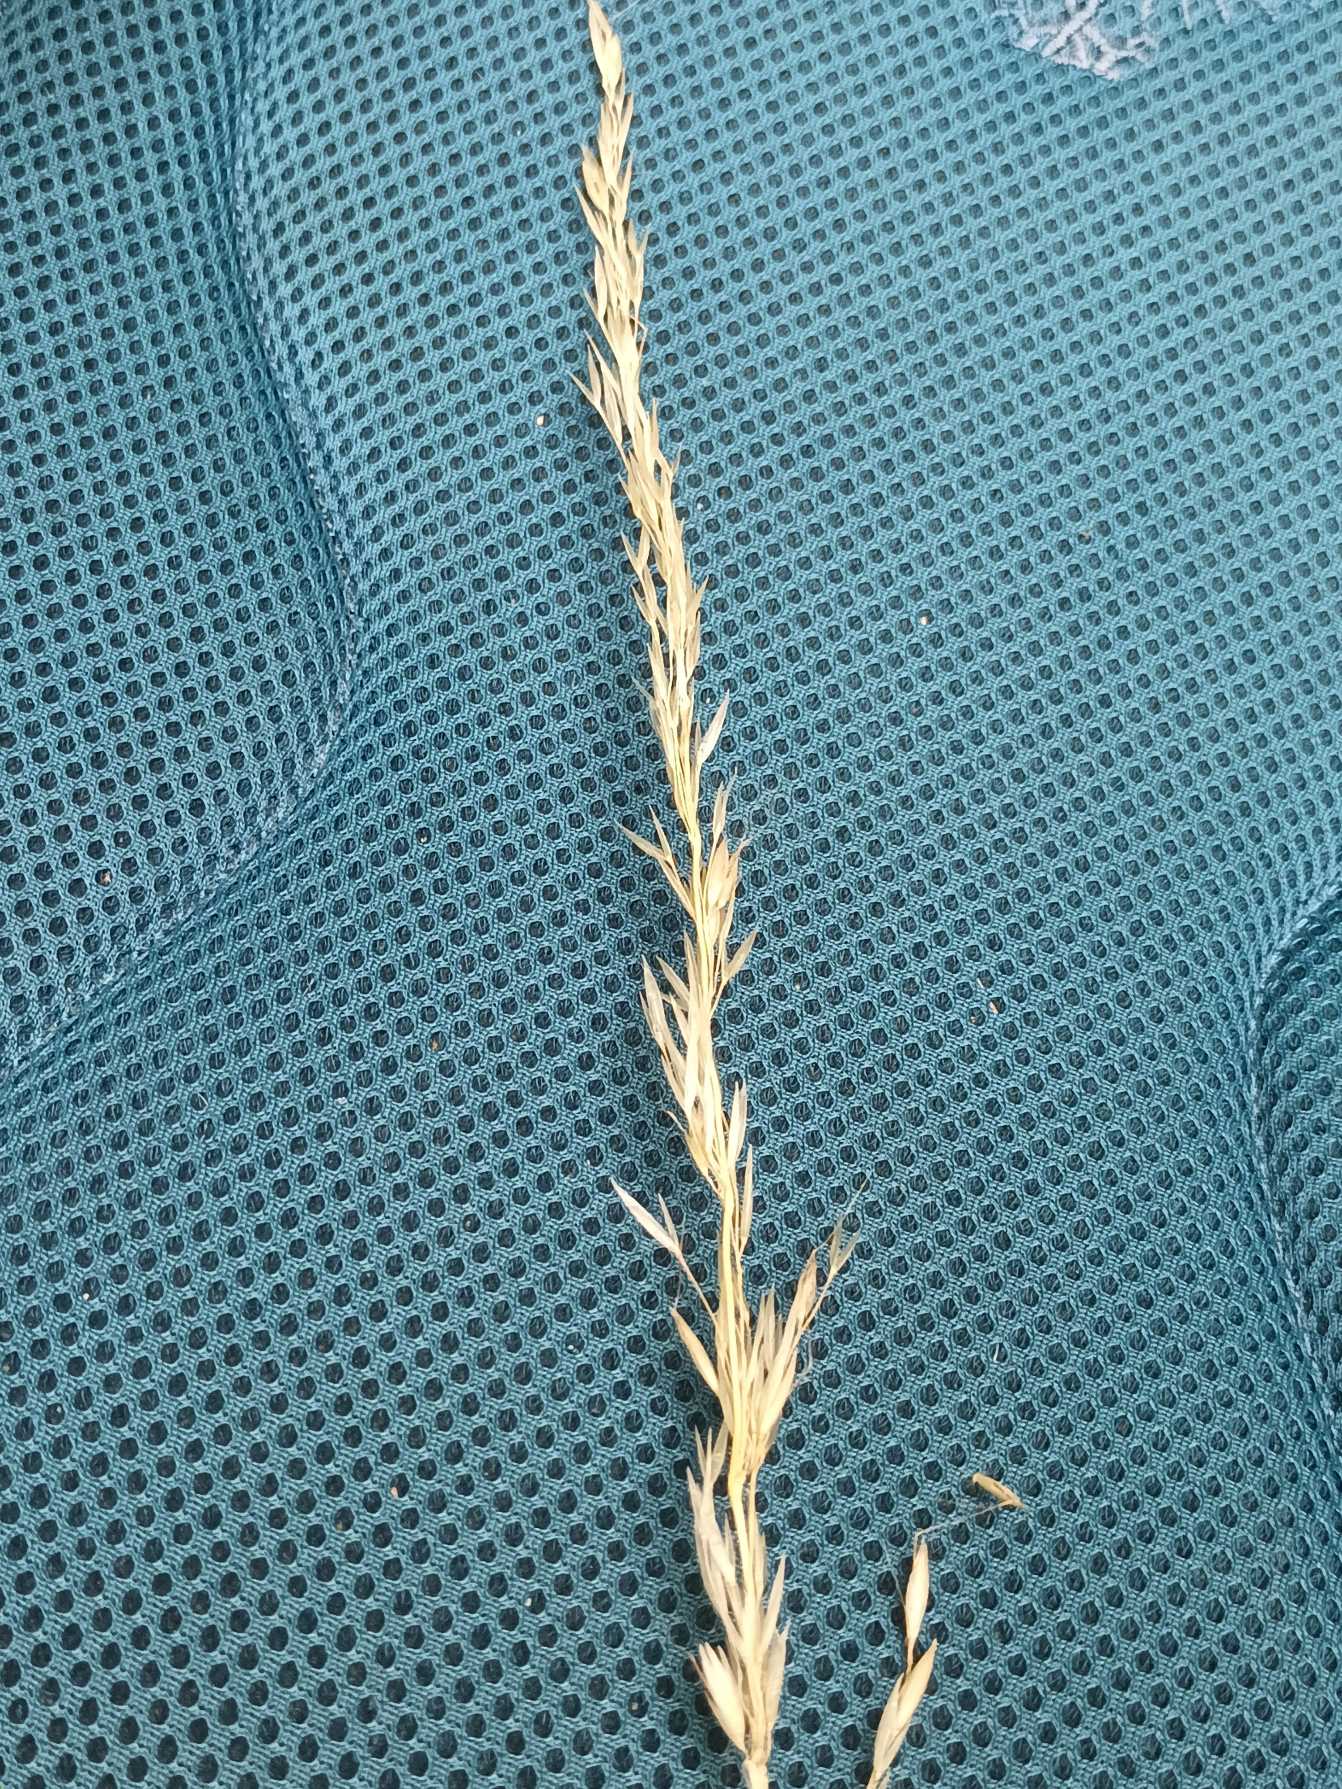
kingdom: Plantae
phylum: Tracheophyta
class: Liliopsida
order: Poales
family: Poaceae
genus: Arrhenatherum
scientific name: Arrhenatherum elatius
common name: Draphavre
